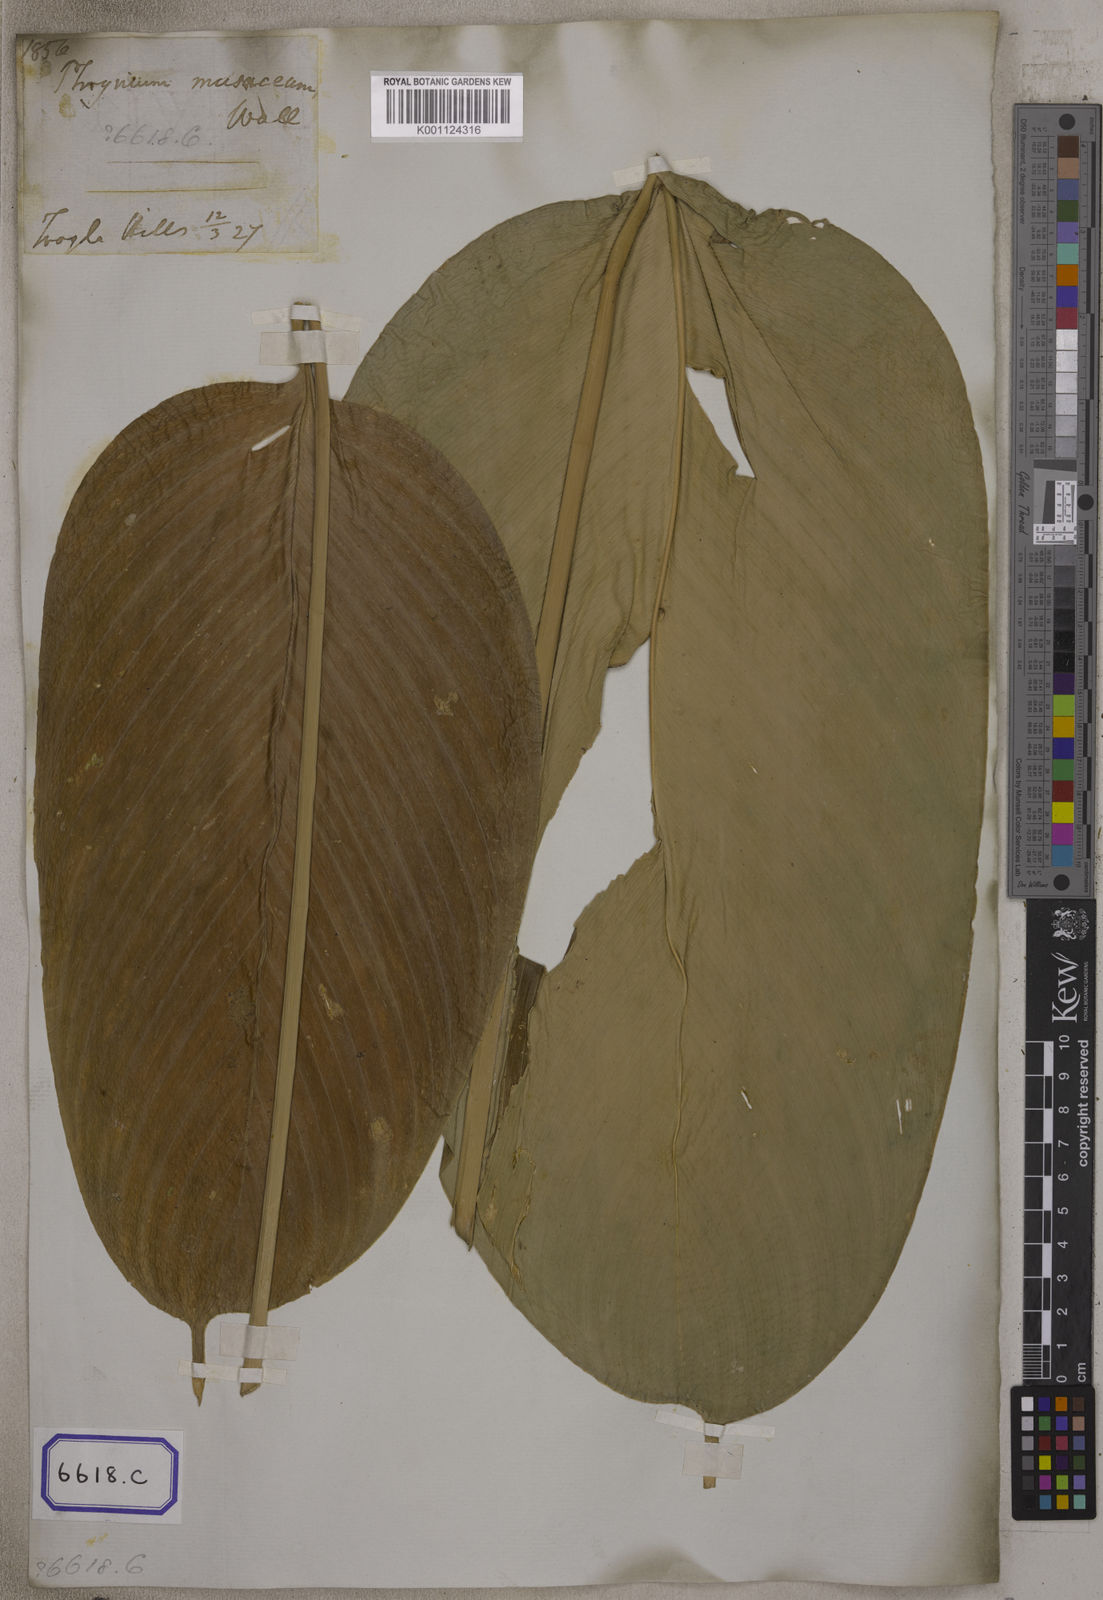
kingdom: Plantae
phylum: Tracheophyta
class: Liliopsida
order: Zingiberales
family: Marantaceae
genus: Phrynium
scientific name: Phrynium
